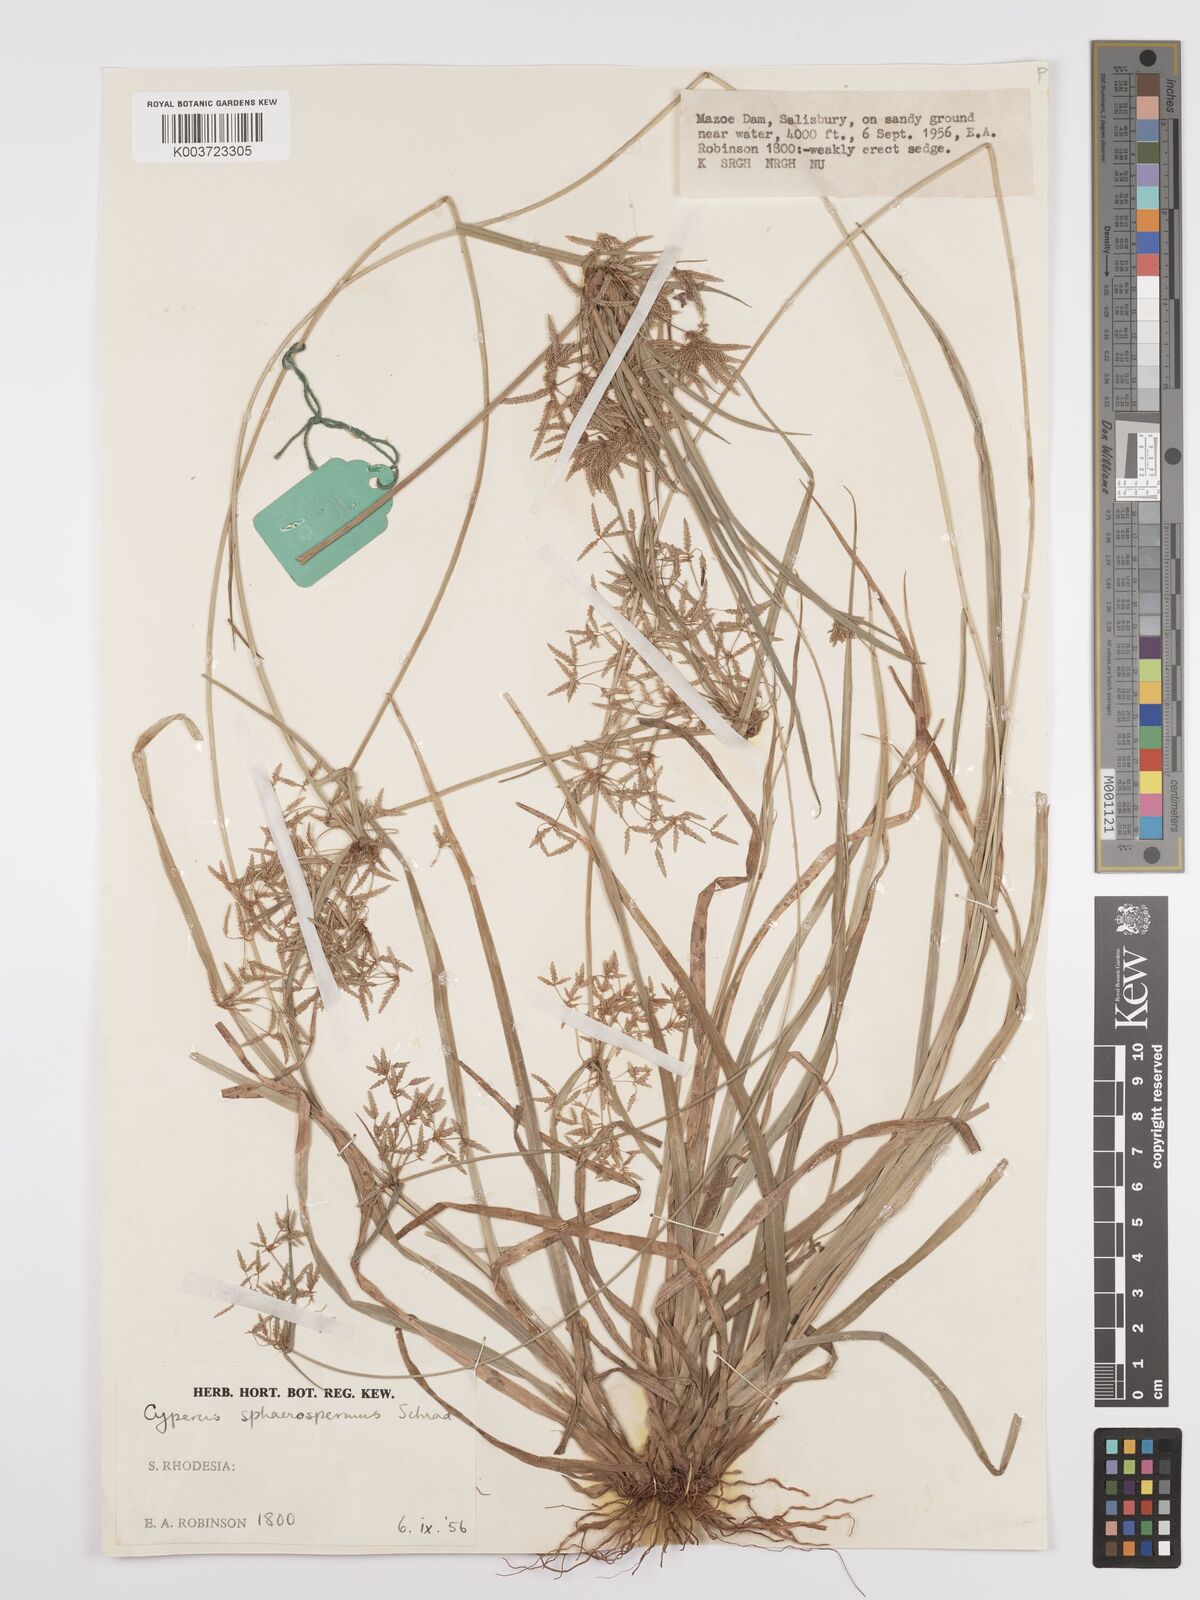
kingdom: Plantae
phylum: Tracheophyta
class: Liliopsida
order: Poales
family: Cyperaceae
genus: Cyperus
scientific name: Cyperus denudatus
